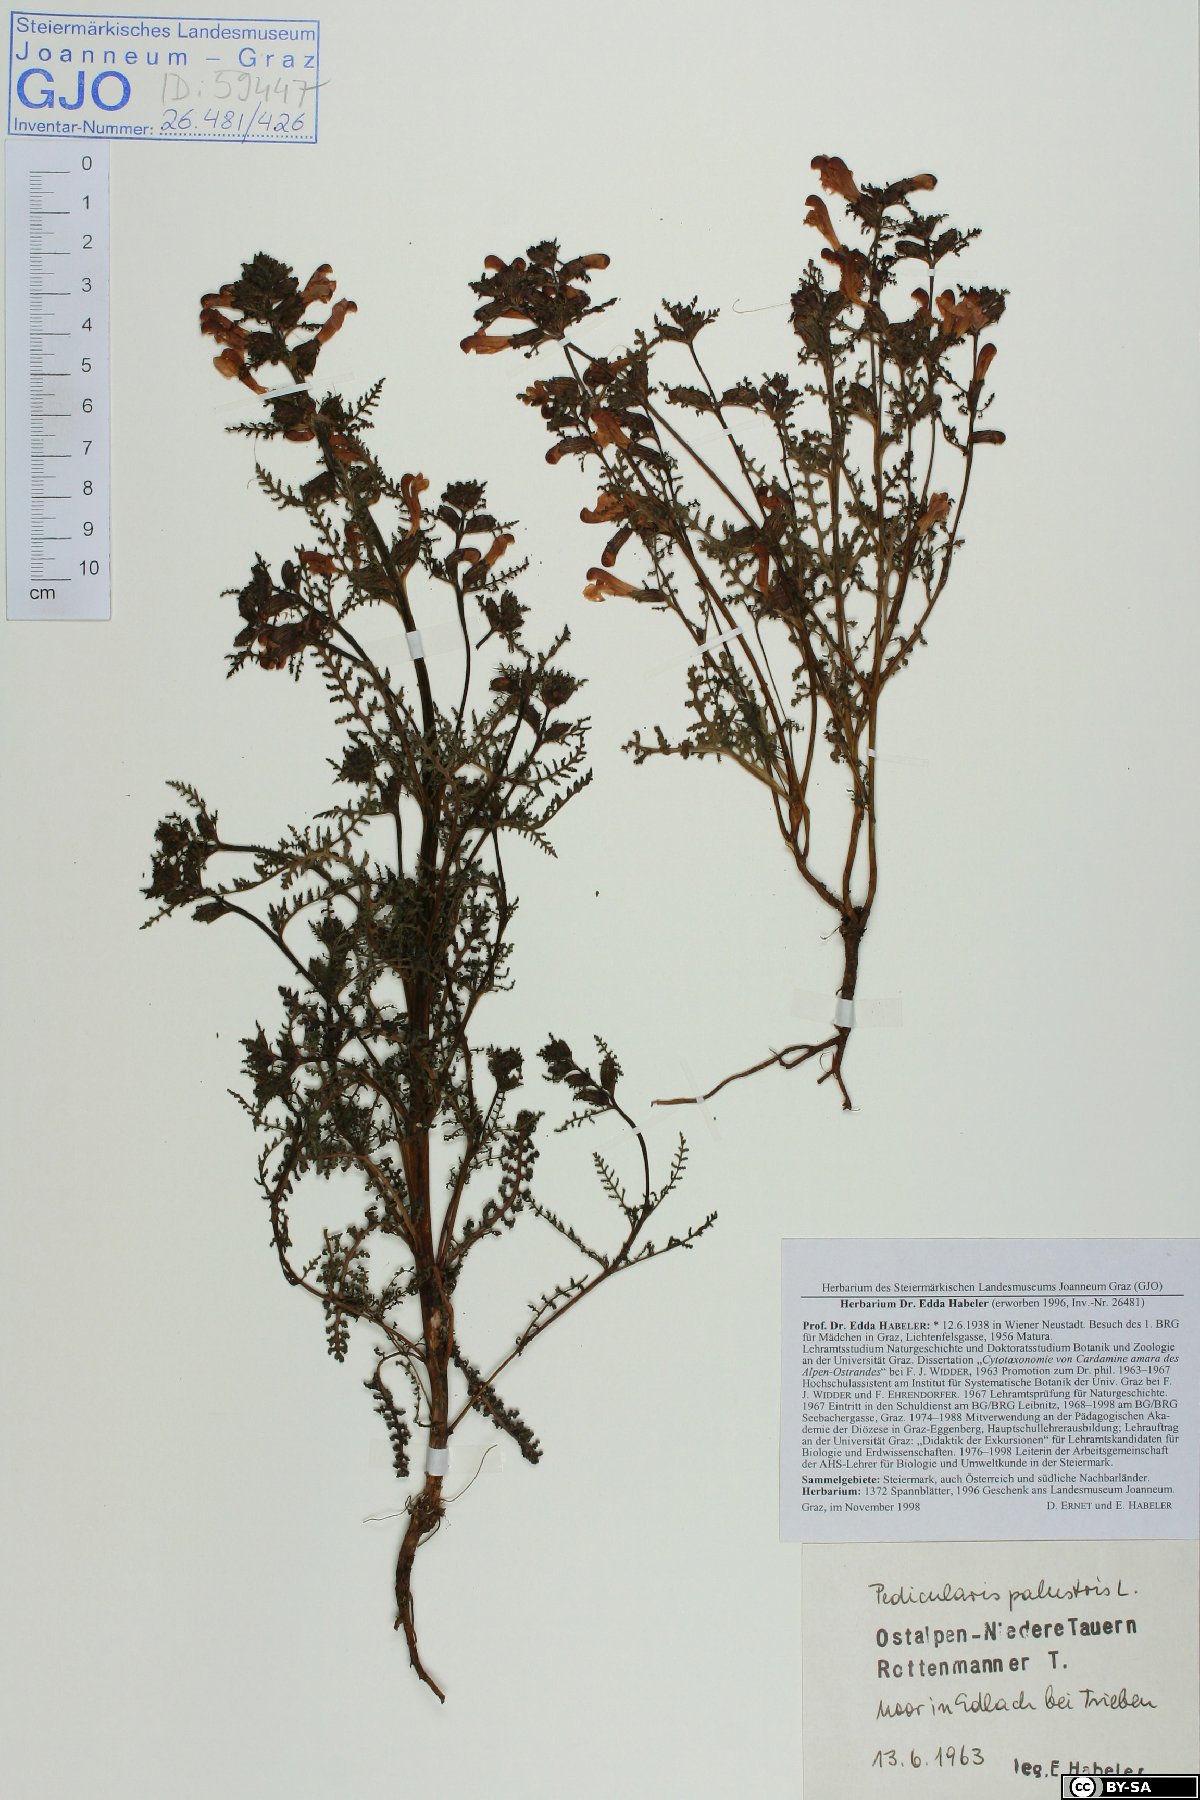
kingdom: Plantae
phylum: Tracheophyta
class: Magnoliopsida
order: Lamiales
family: Orobanchaceae
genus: Pedicularis
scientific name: Pedicularis palustris
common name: Marsh lousewort
